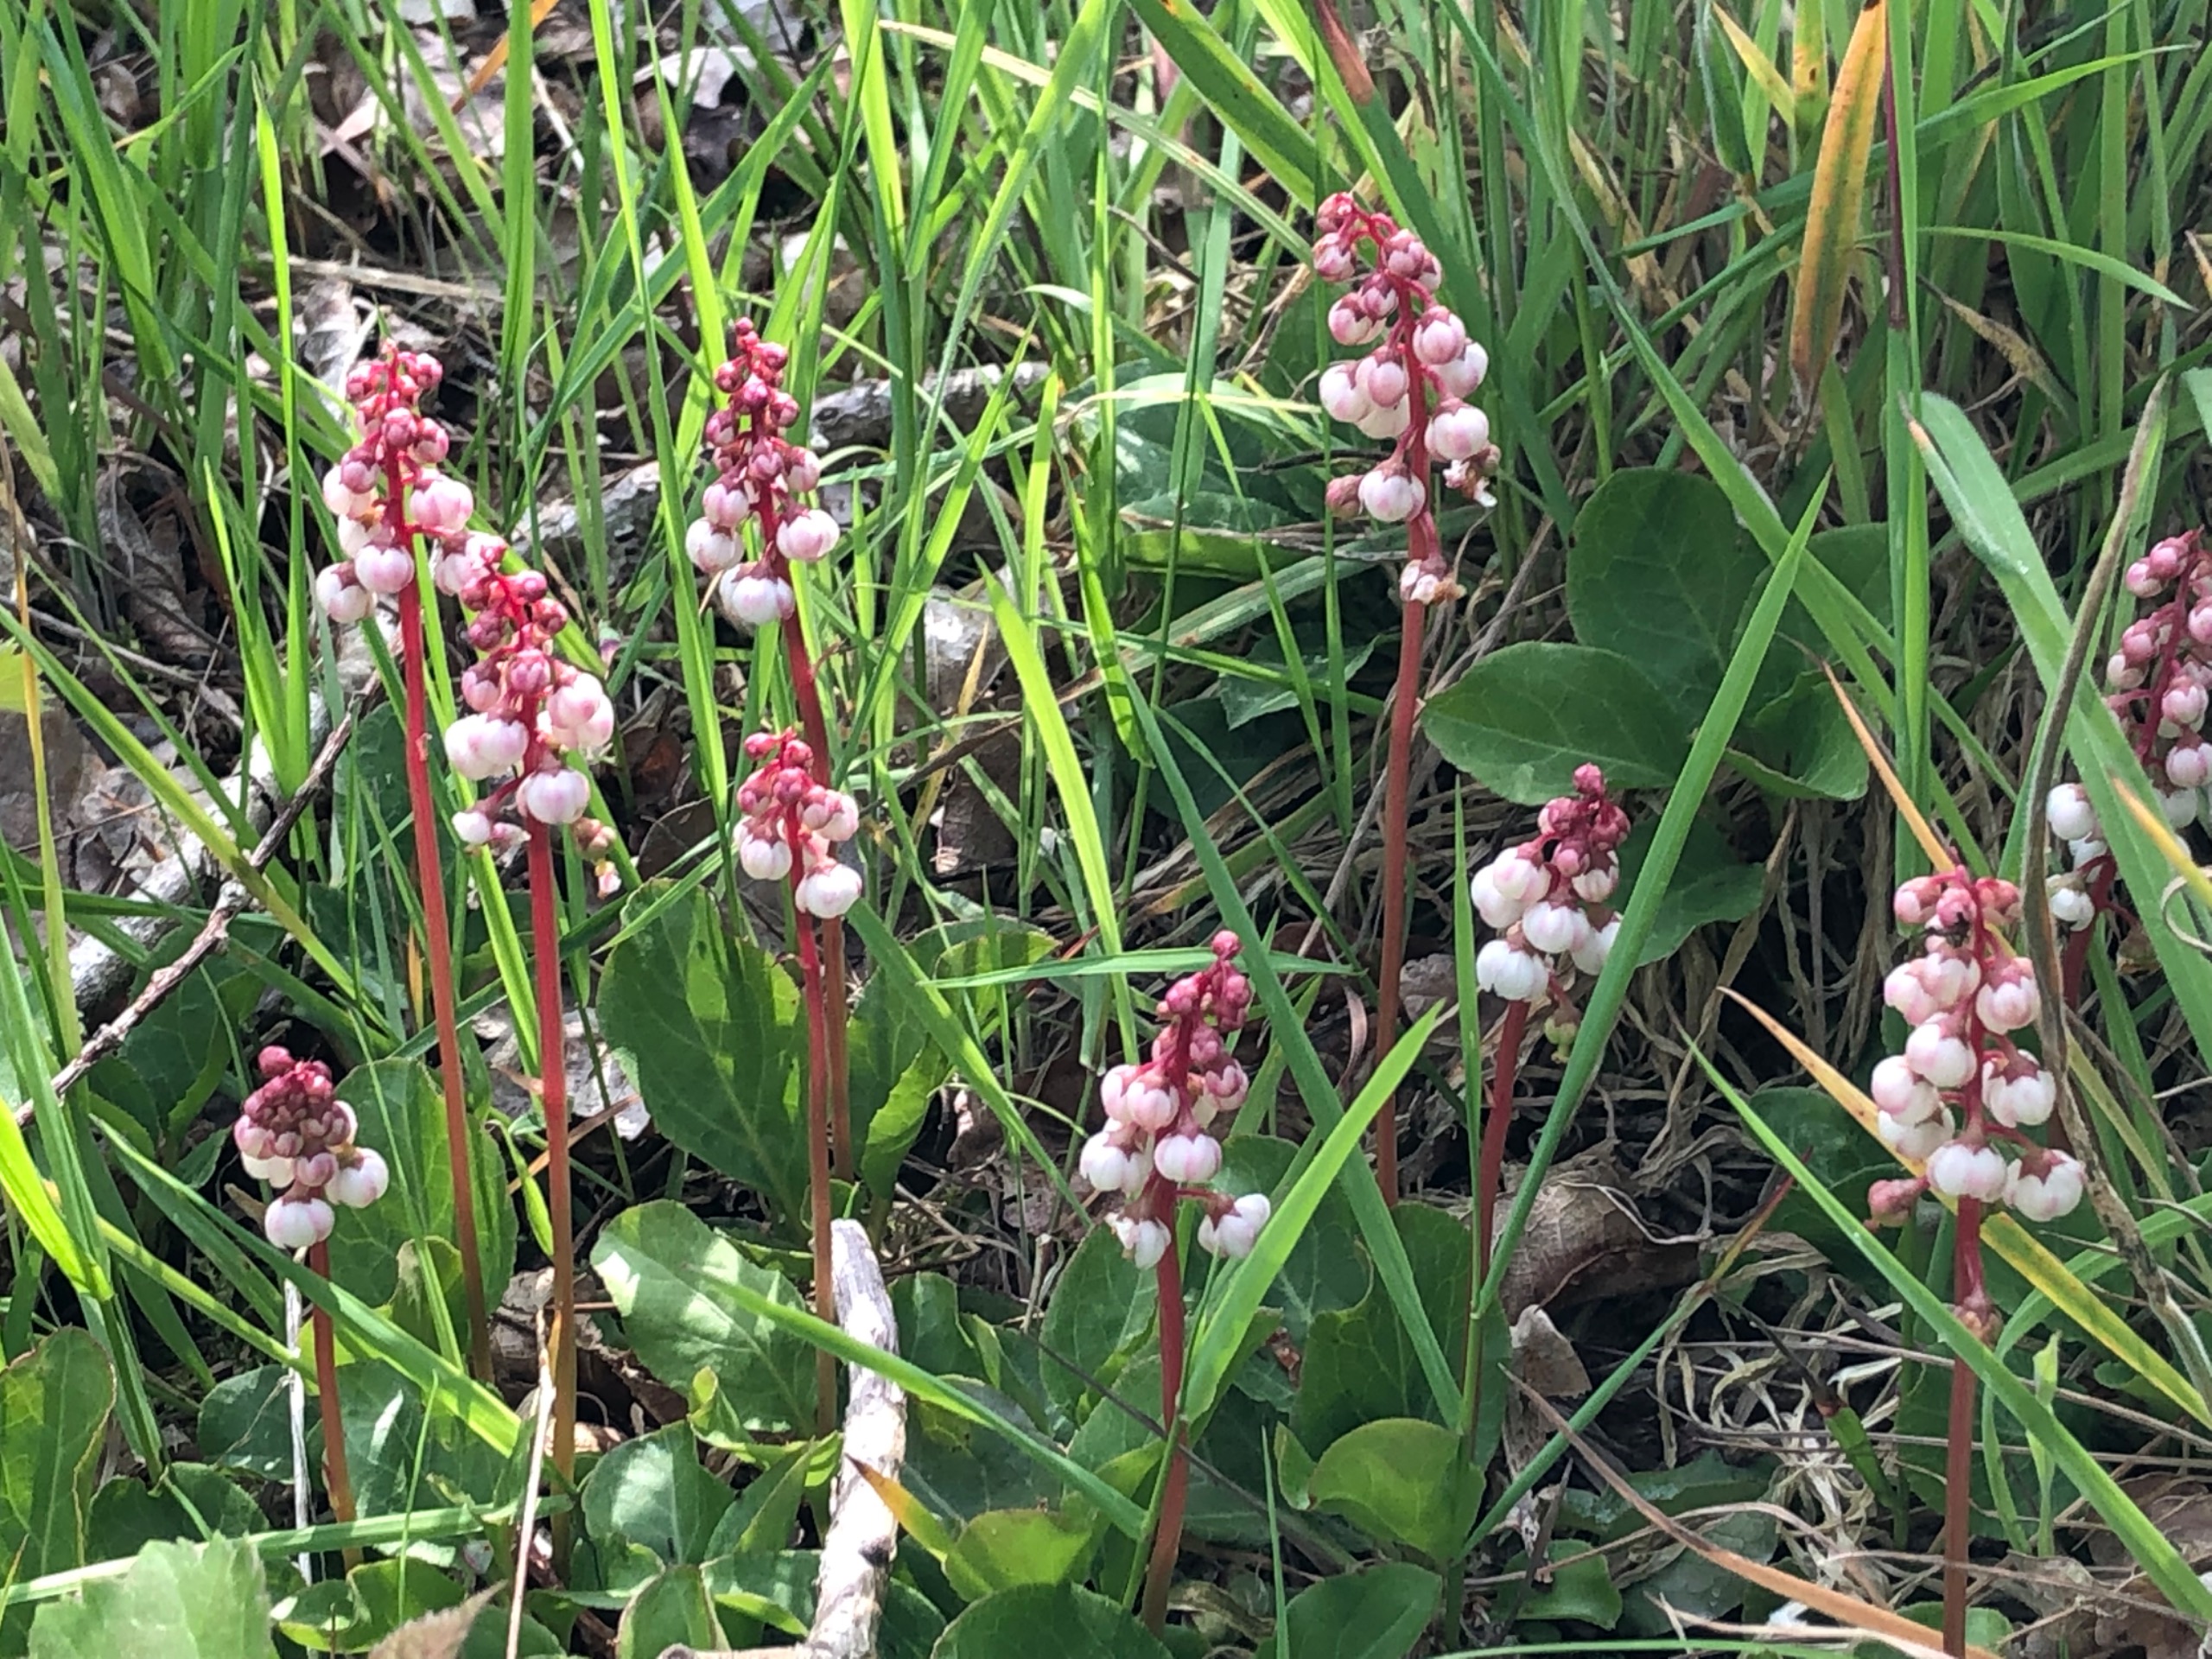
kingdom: Plantae
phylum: Tracheophyta
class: Magnoliopsida
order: Ericales
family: Ericaceae
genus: Pyrola
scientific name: Pyrola minor
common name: Liden vintergrøn
